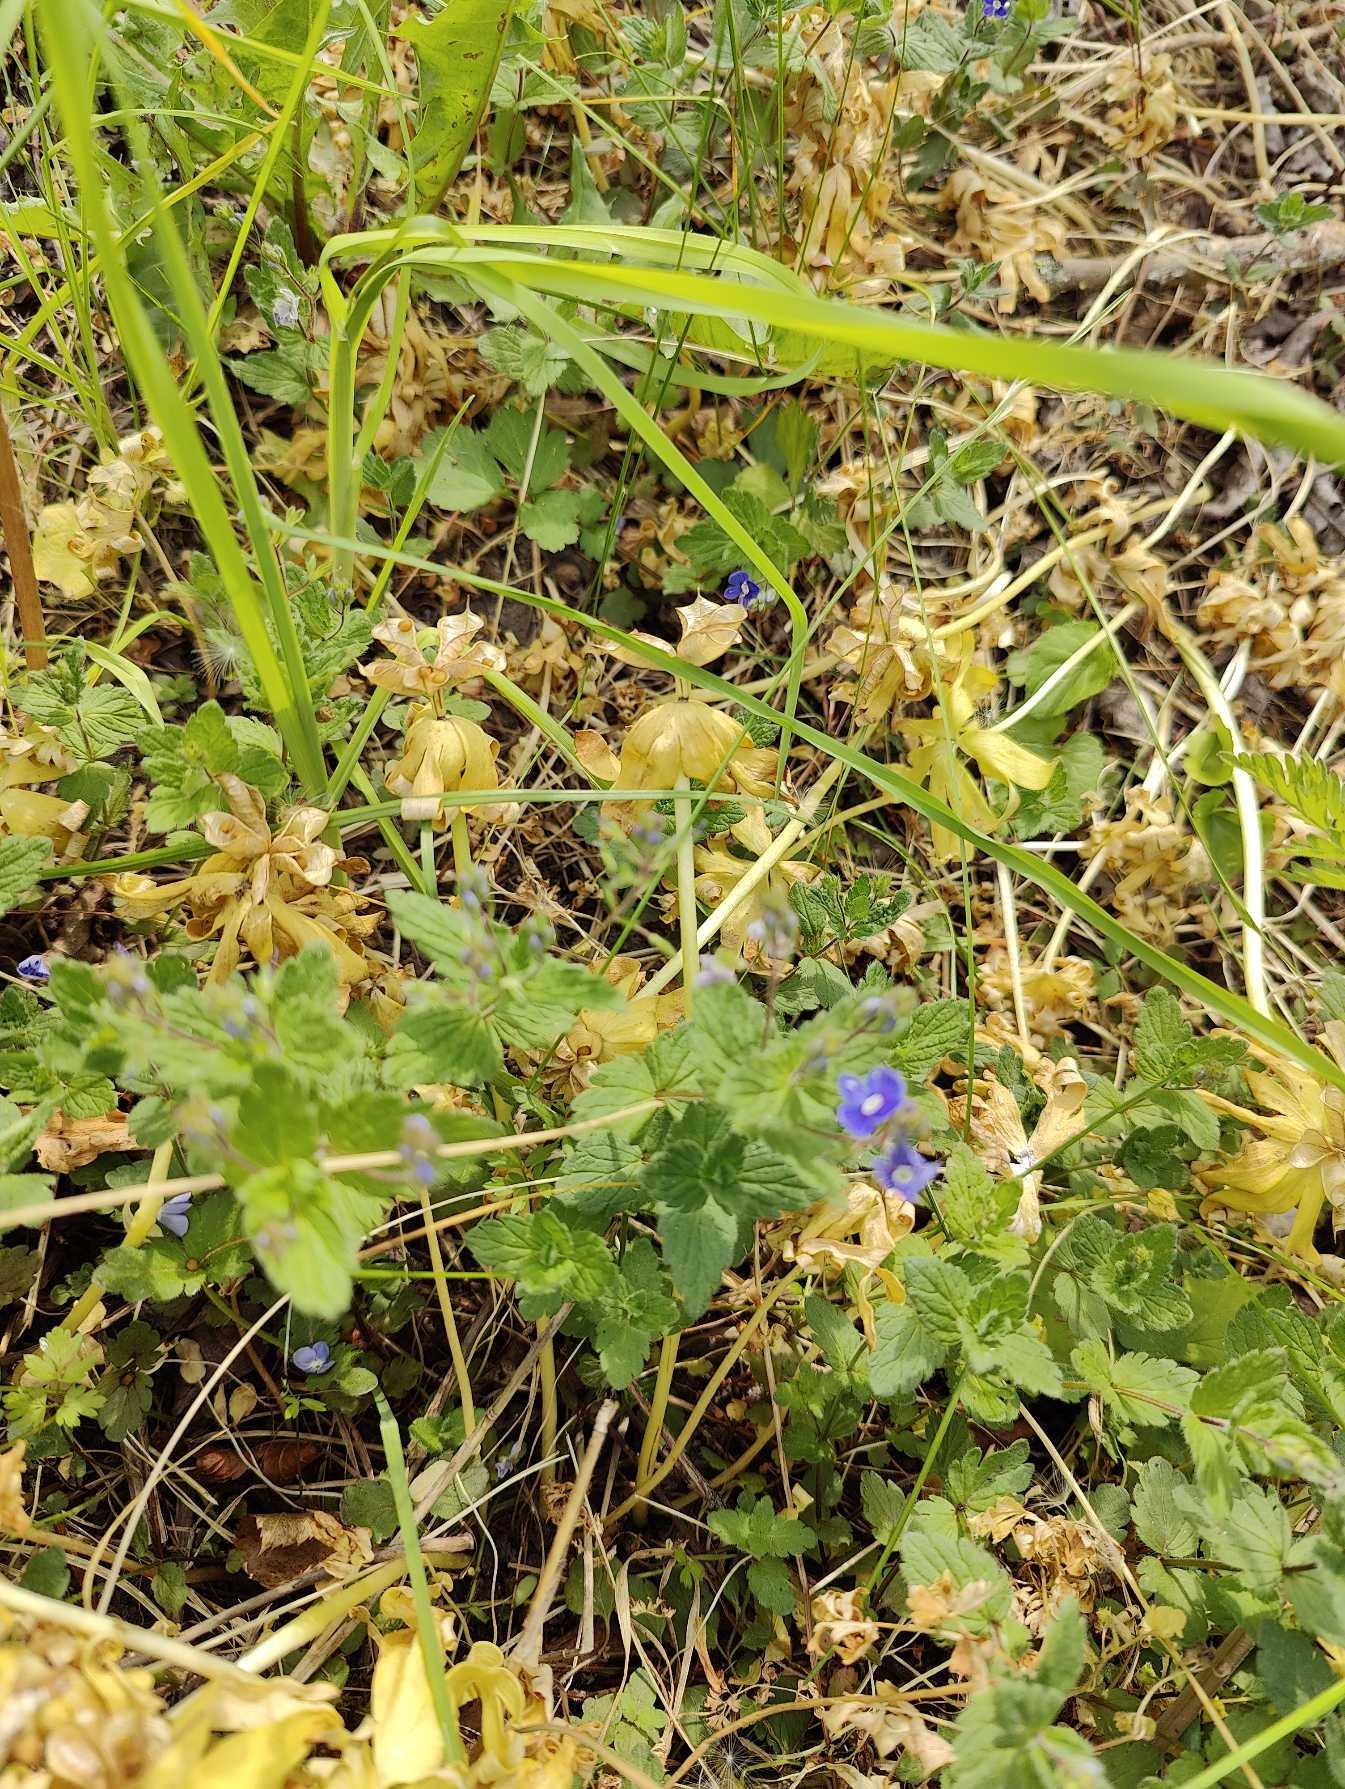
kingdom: Plantae
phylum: Tracheophyta
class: Magnoliopsida
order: Lamiales
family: Plantaginaceae
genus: Veronica
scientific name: Veronica chamaedrys
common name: Tveskægget ærenpris
